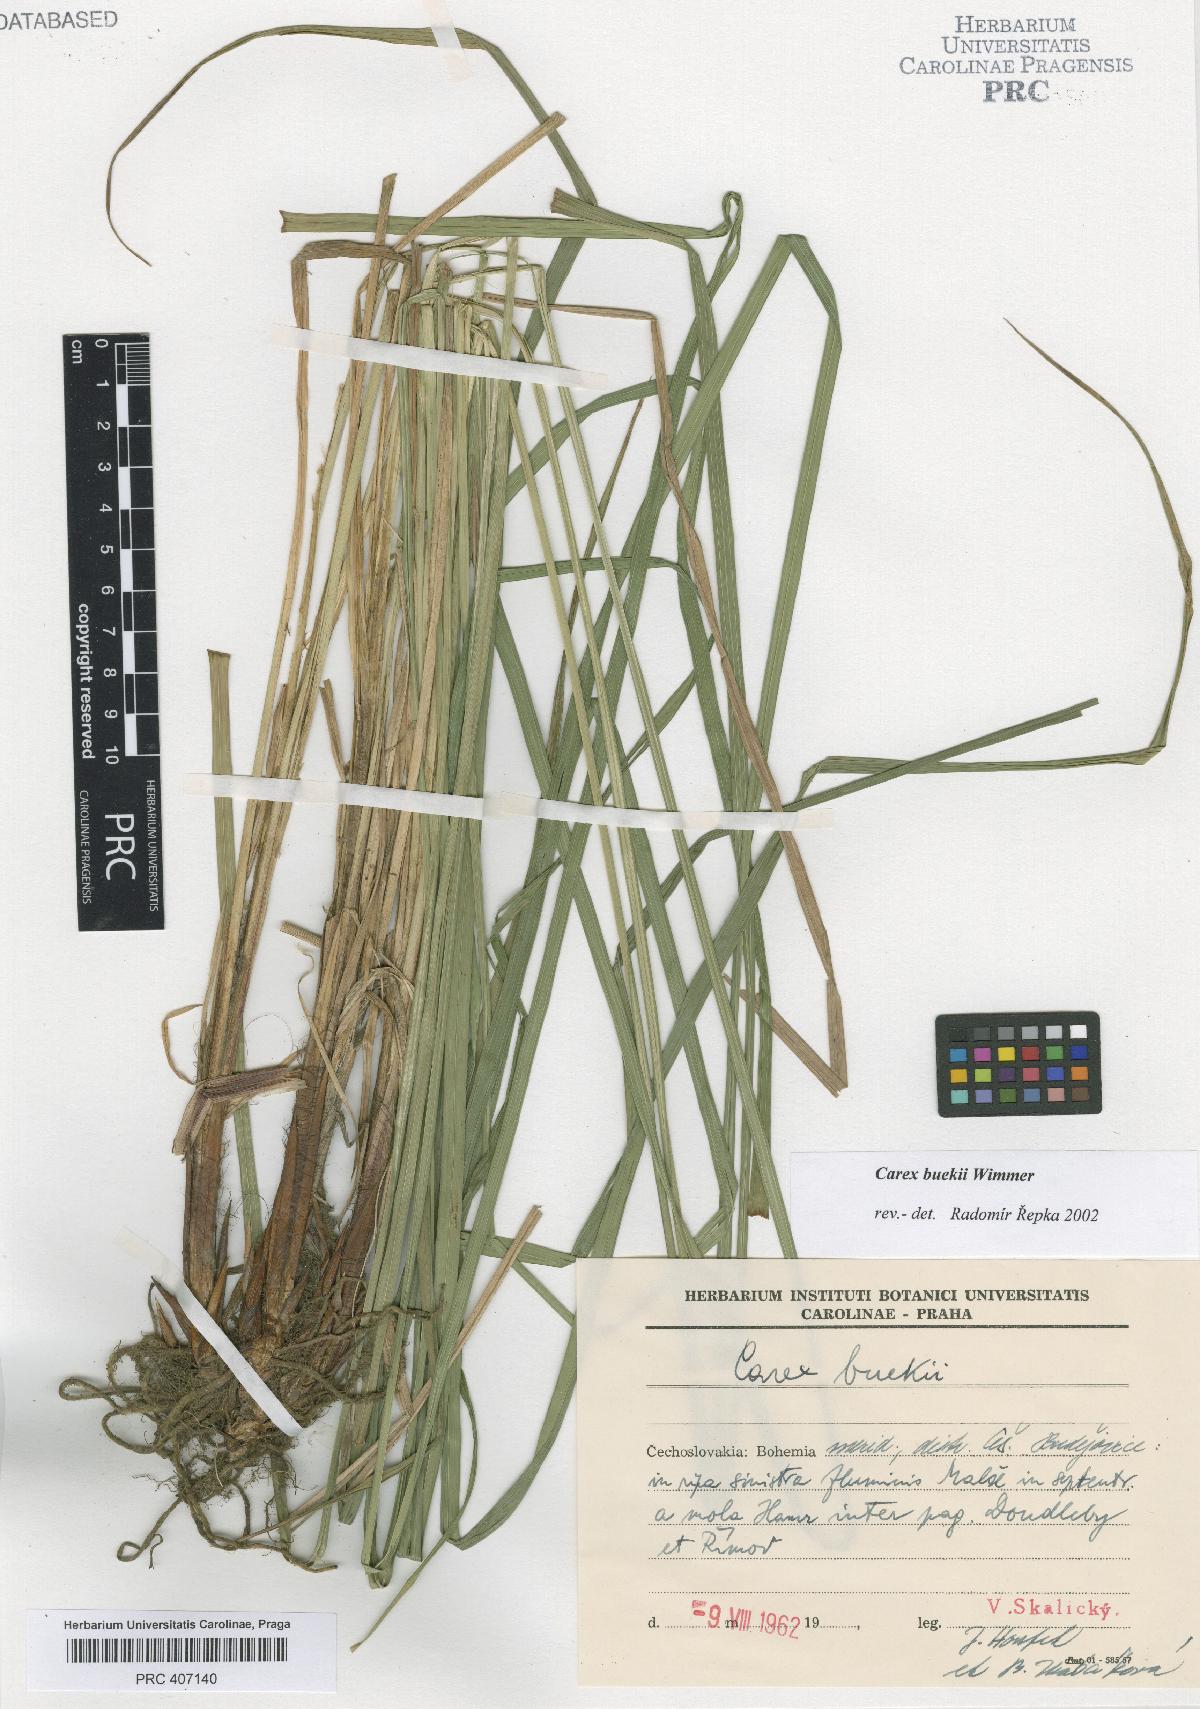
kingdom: Plantae
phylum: Tracheophyta
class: Liliopsida
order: Poales
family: Cyperaceae
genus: Carex
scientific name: Carex buekii
